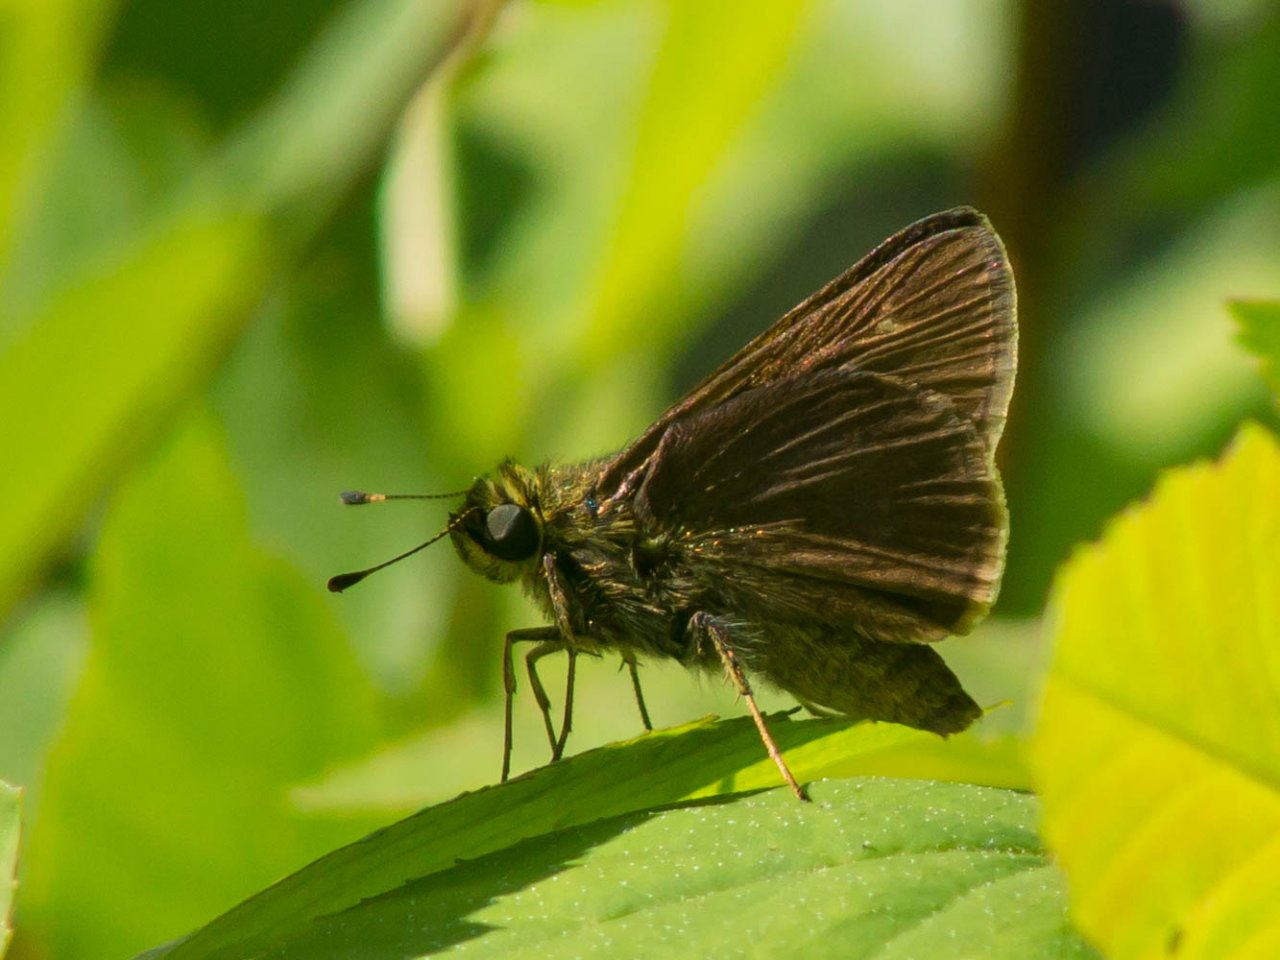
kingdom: Animalia
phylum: Arthropoda
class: Insecta
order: Lepidoptera
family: Hesperiidae
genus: Euphyes
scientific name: Euphyes vestris
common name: Dun Skipper
